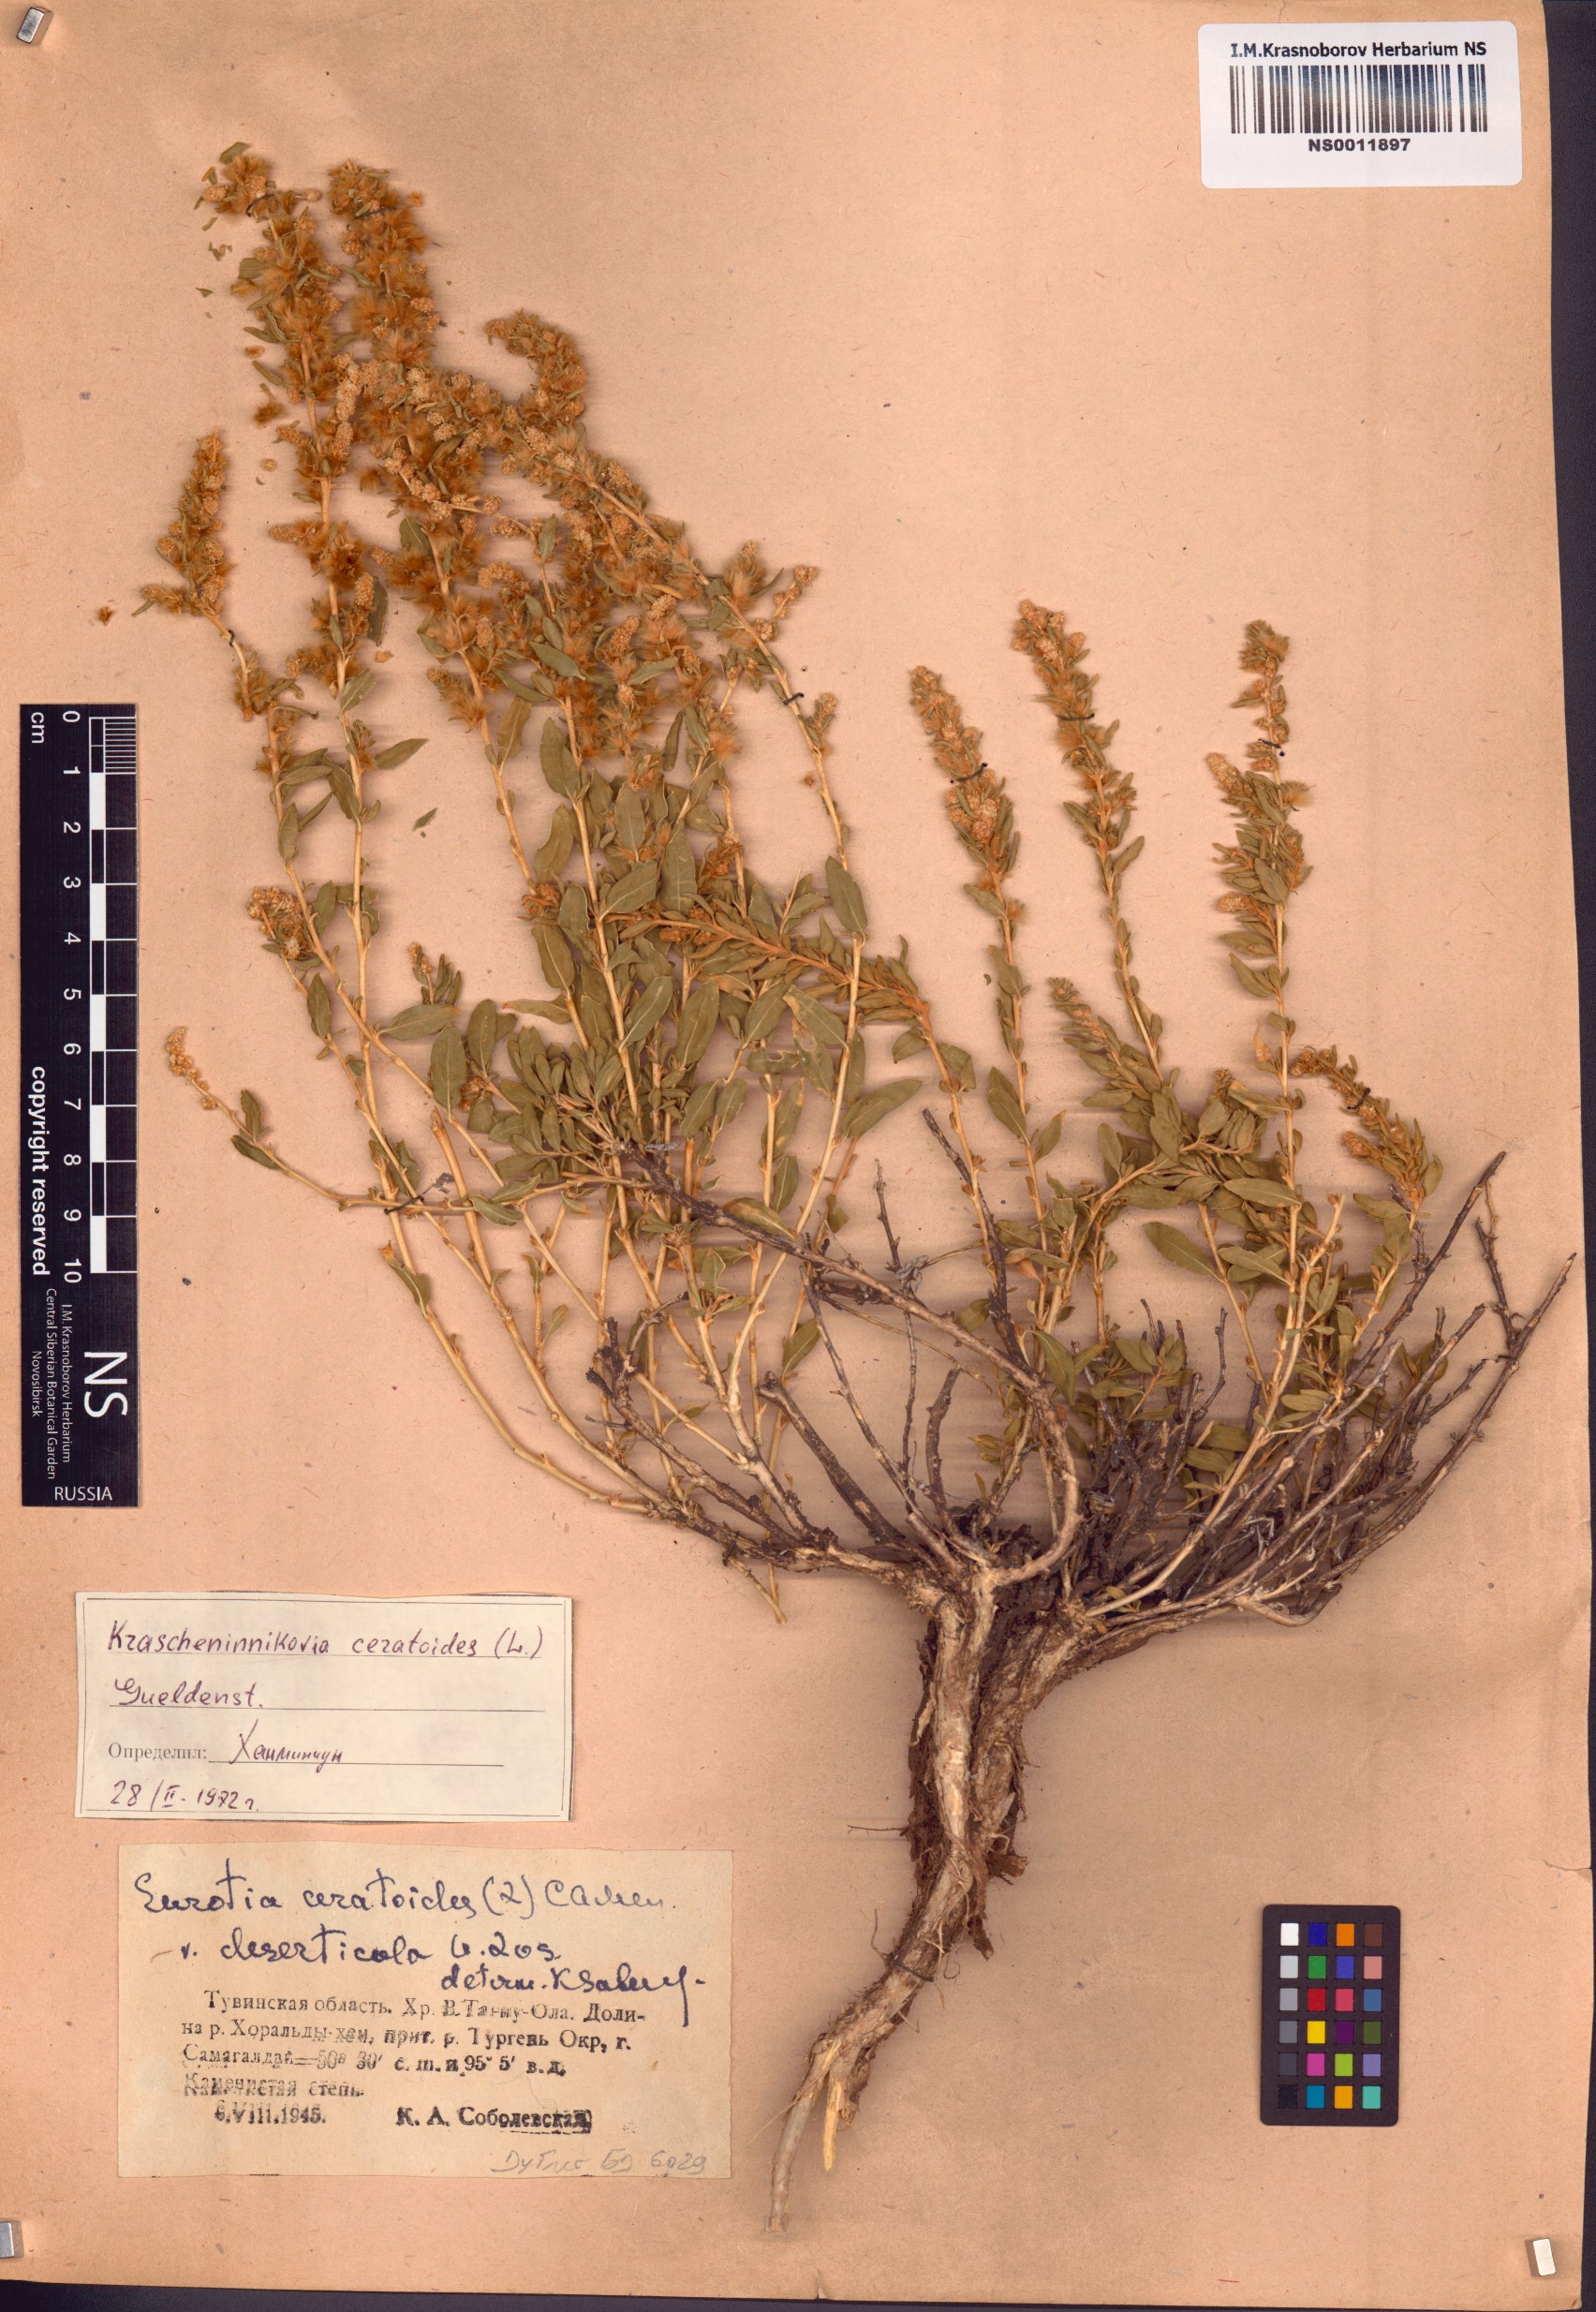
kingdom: Plantae
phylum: Tracheophyta
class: Magnoliopsida
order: Caryophyllales
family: Amaranthaceae
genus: Krascheninnikovia
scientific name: Krascheninnikovia ceratoides
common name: Pamirian winterfat
